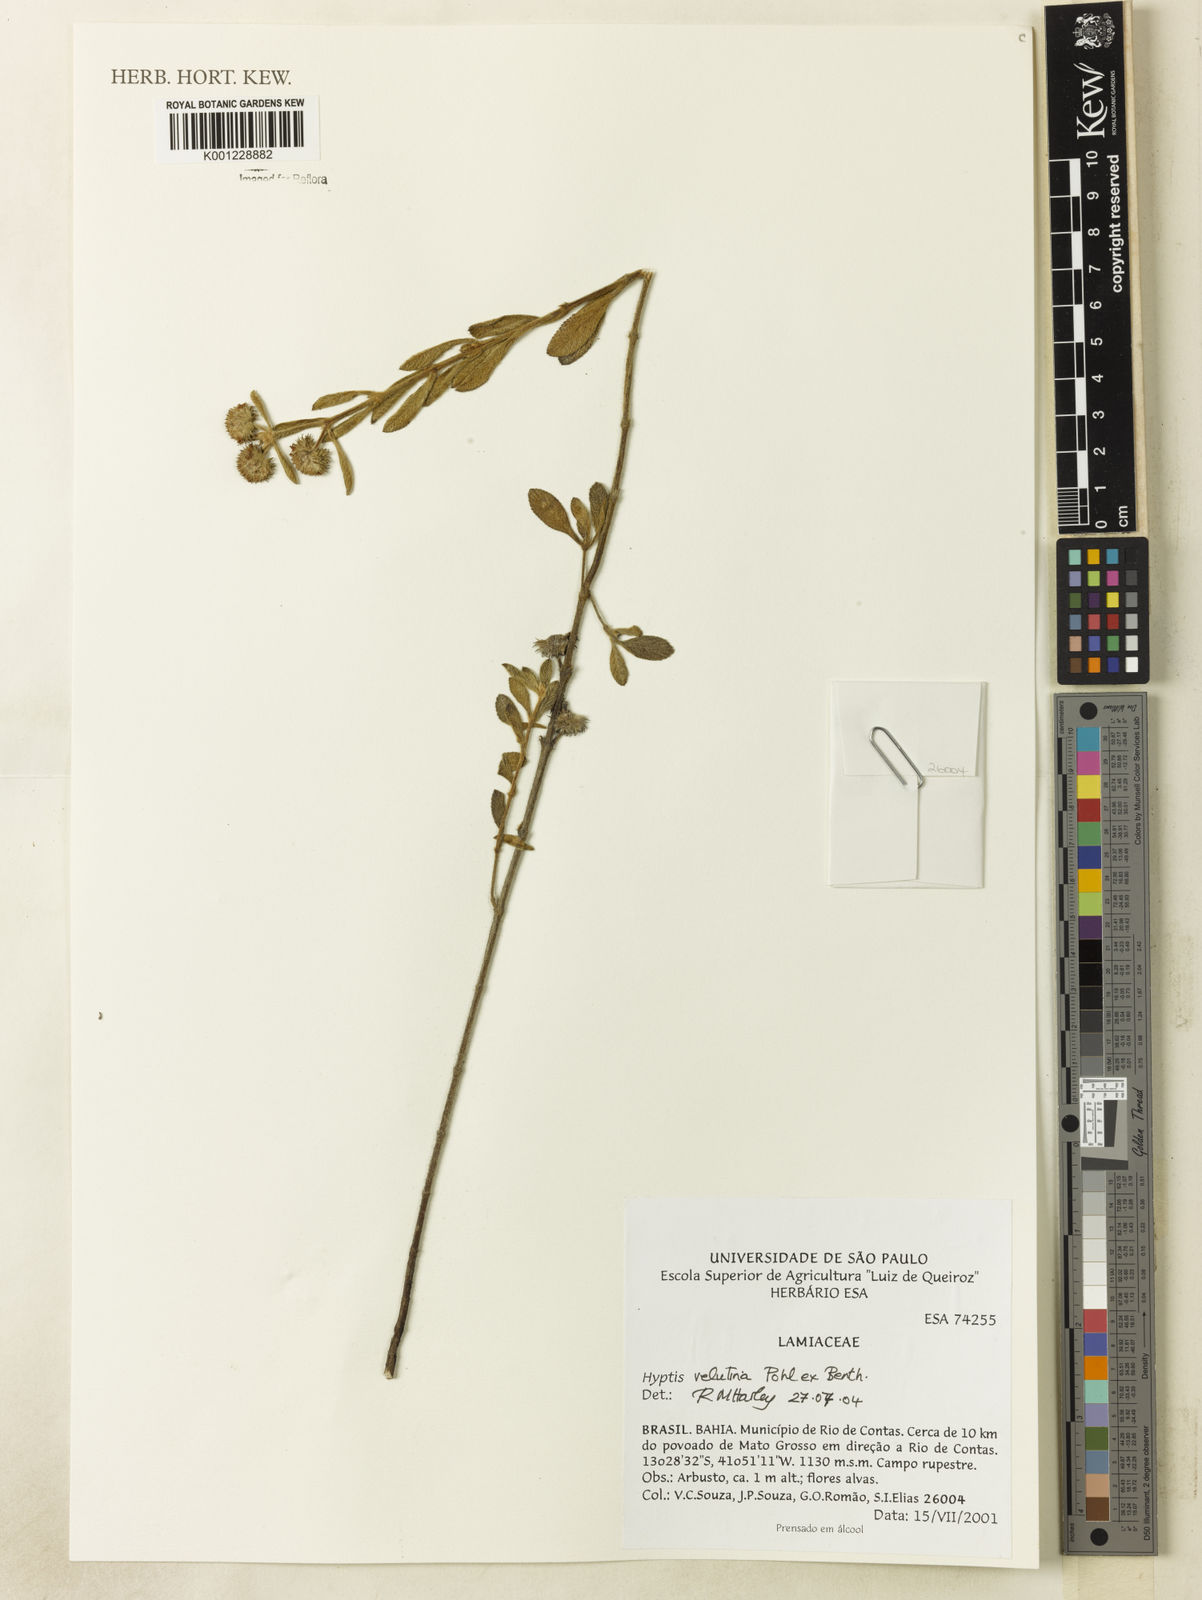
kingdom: Plantae
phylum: Tracheophyta
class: Magnoliopsida
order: Lamiales
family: Lamiaceae
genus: Hyptis
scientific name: Hyptis velutina
